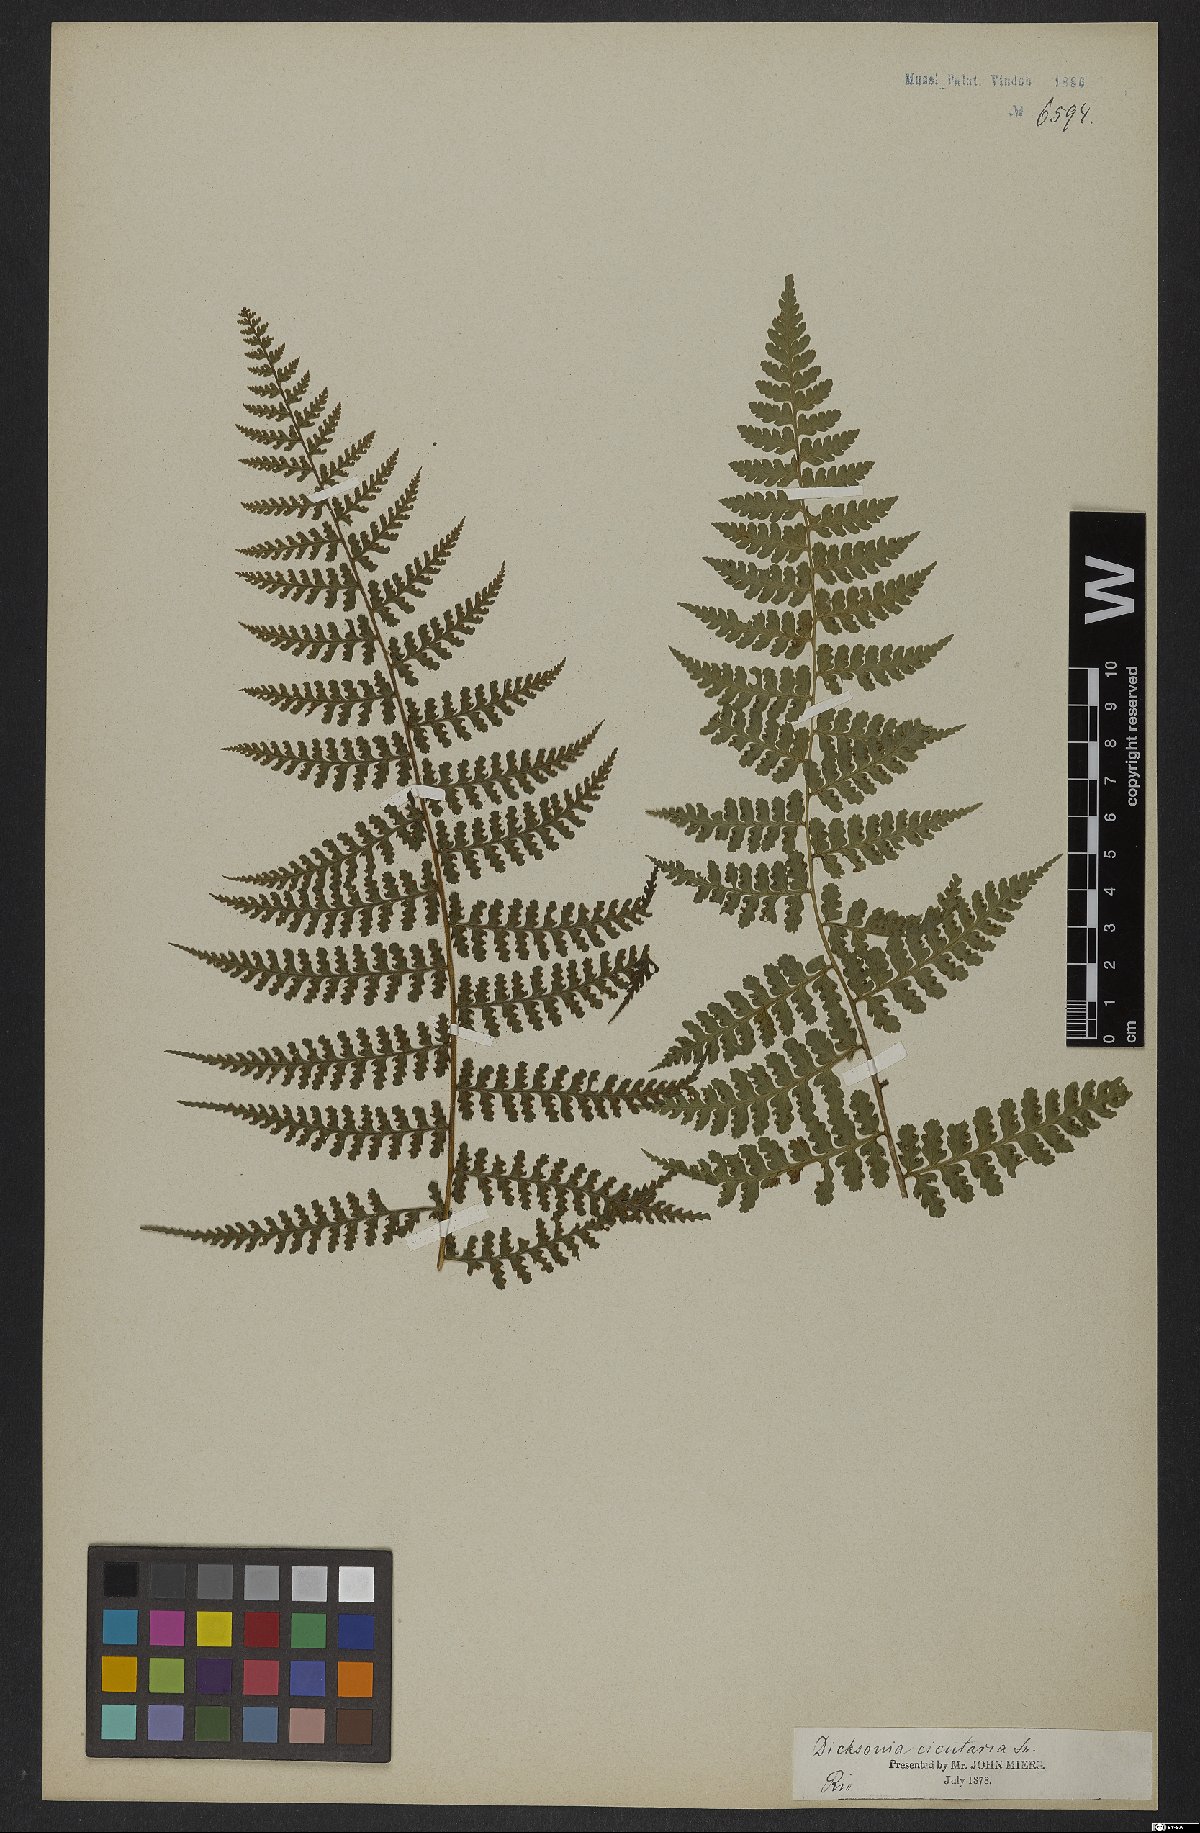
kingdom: Plantae
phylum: Tracheophyta
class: Polypodiopsida
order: Polypodiales
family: Dennstaedtiaceae
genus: Dennstaedtia
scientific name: Dennstaedtia cicutaria
